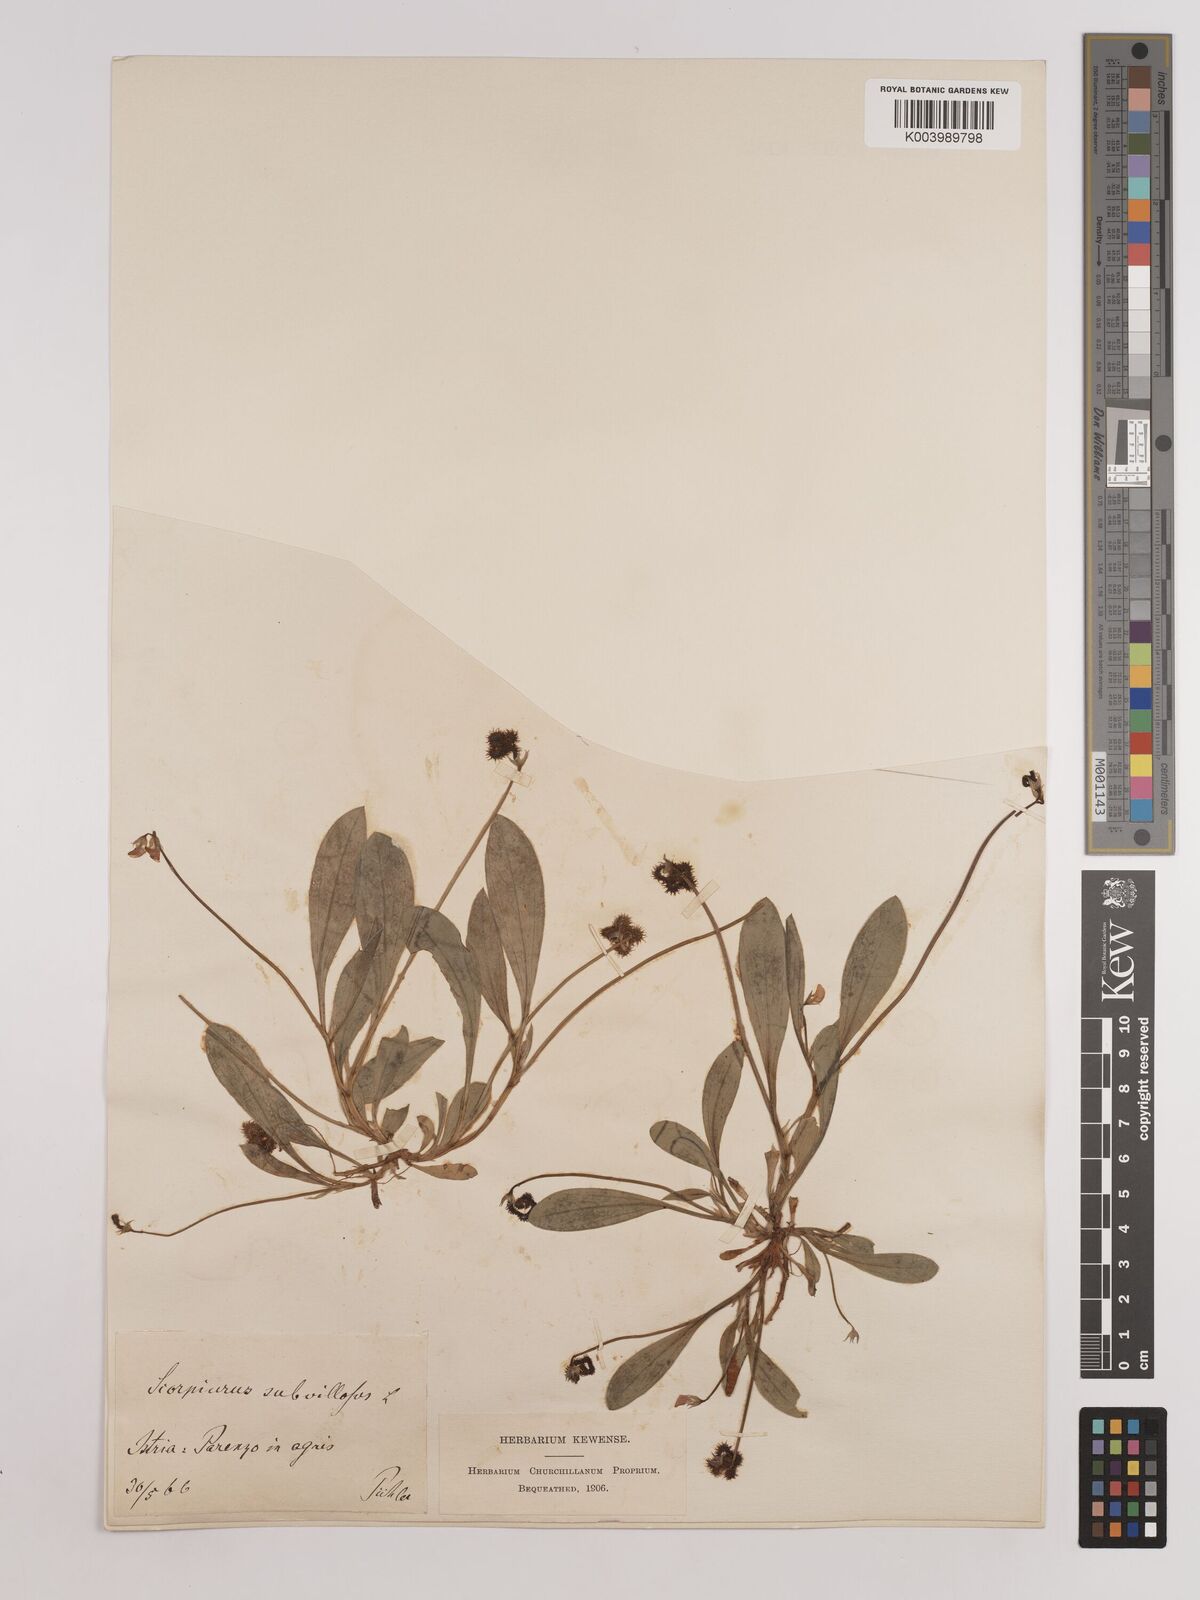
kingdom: Plantae
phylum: Tracheophyta
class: Magnoliopsida
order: Fabales
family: Fabaceae
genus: Scorpiurus
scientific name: Scorpiurus muricatus
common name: Caterpillar-plant
